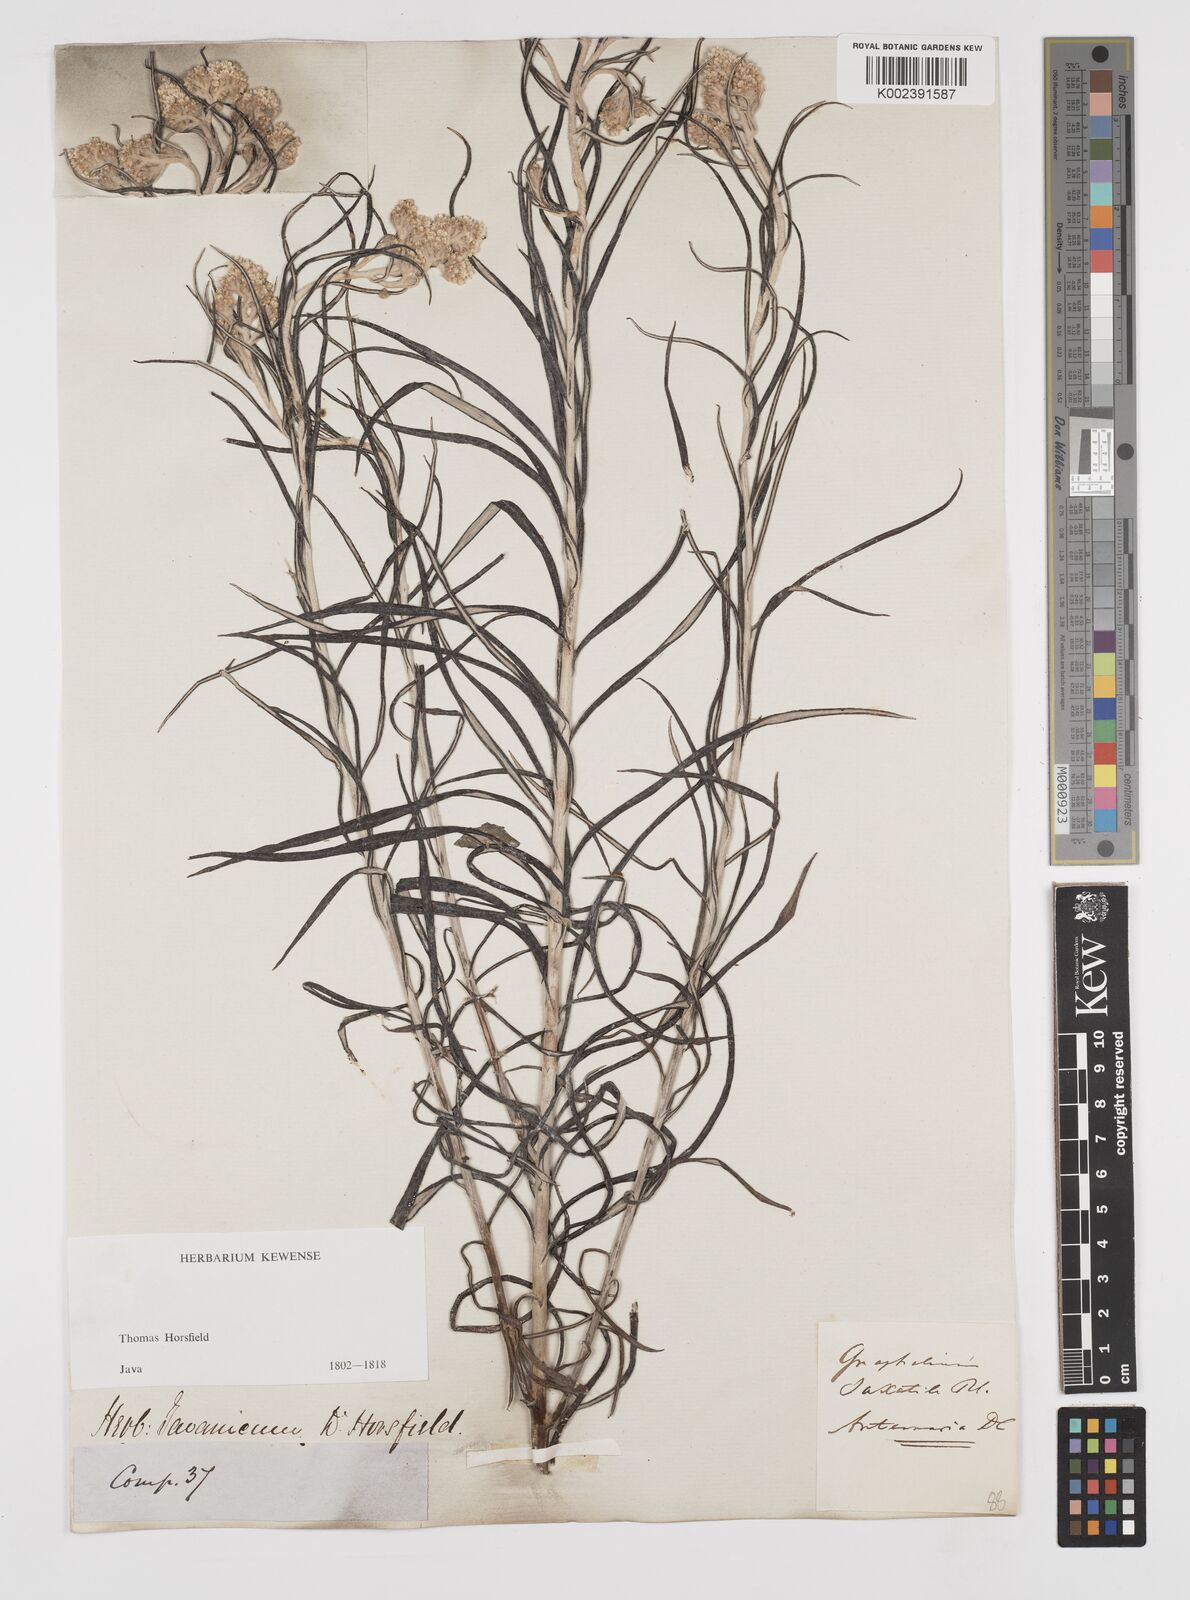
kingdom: Plantae
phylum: Tracheophyta
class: Magnoliopsida
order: Asterales
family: Asteraceae
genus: Anaphalis
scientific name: Anaphalis longifolia
